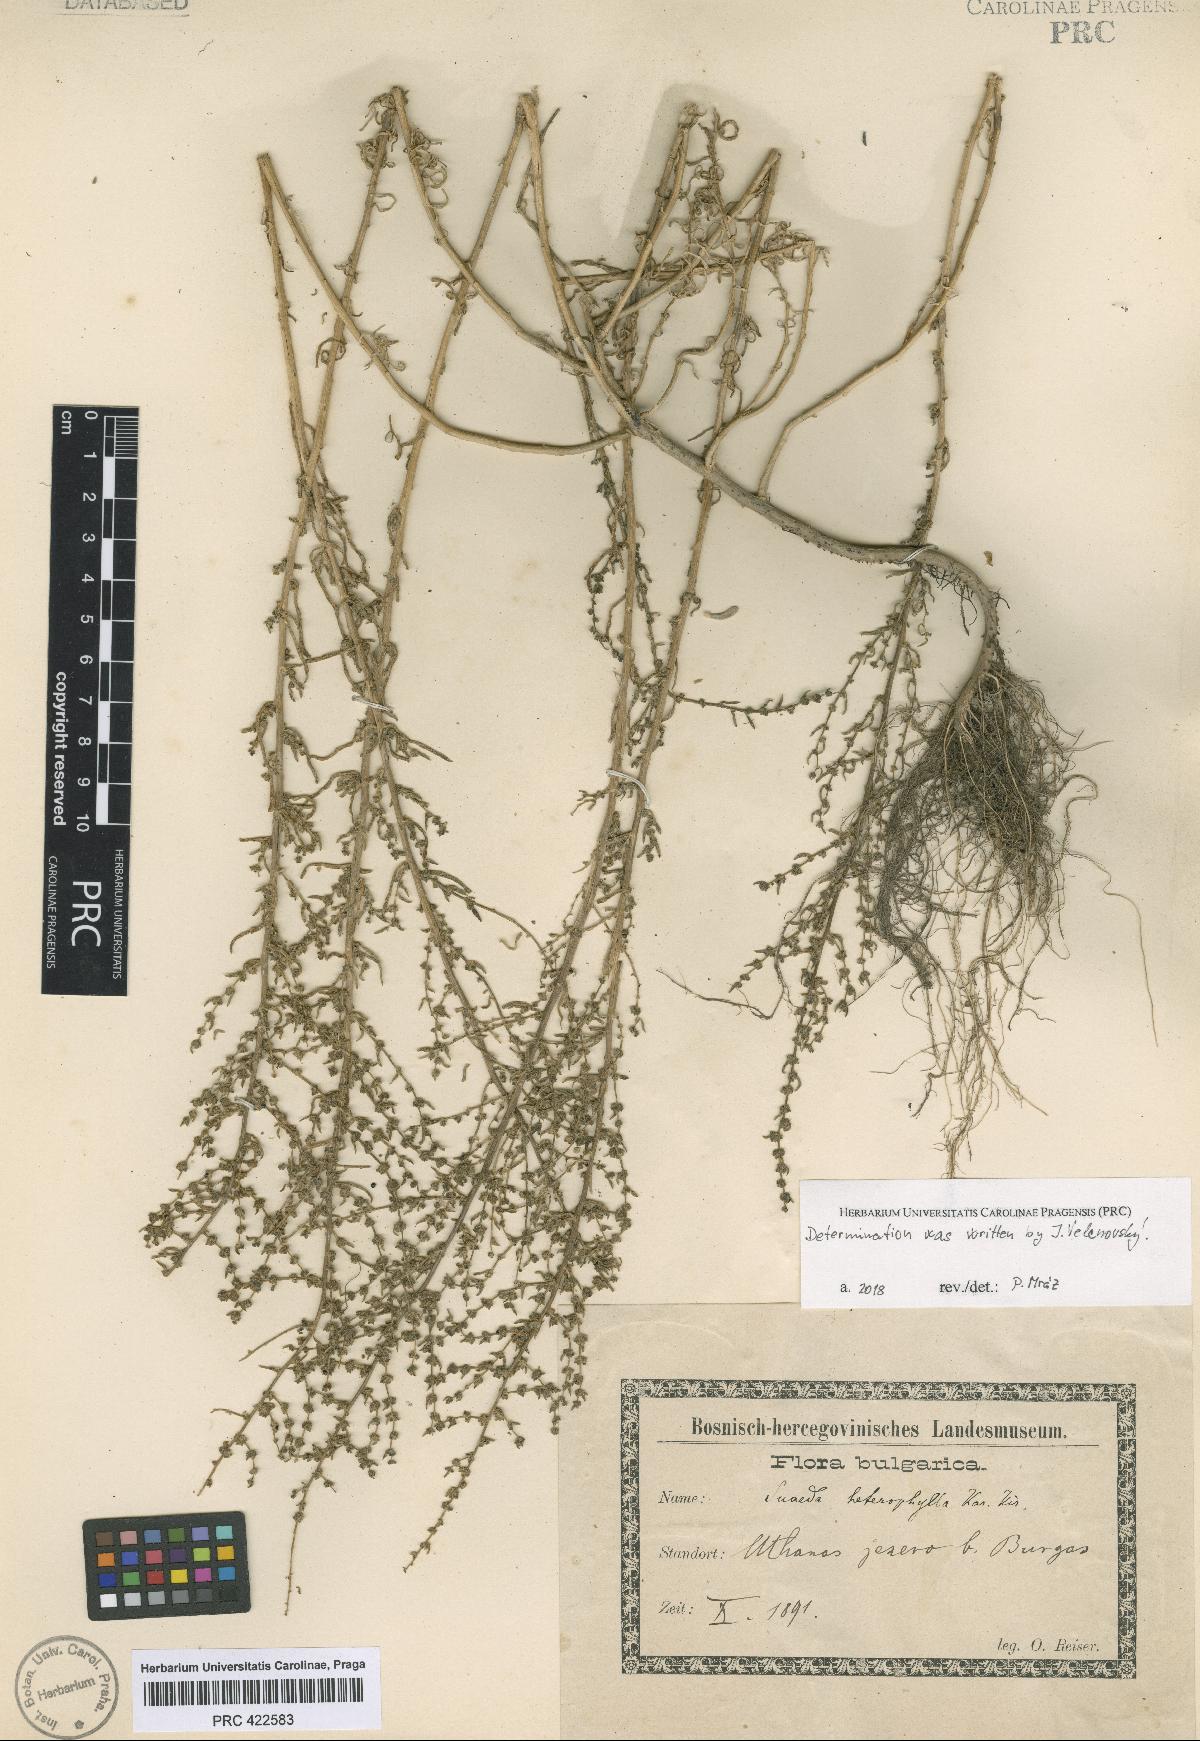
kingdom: Plantae
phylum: Tracheophyta
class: Magnoliopsida
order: Caryophyllales
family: Amaranthaceae
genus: Suaeda
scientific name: Suaeda heterophylla
